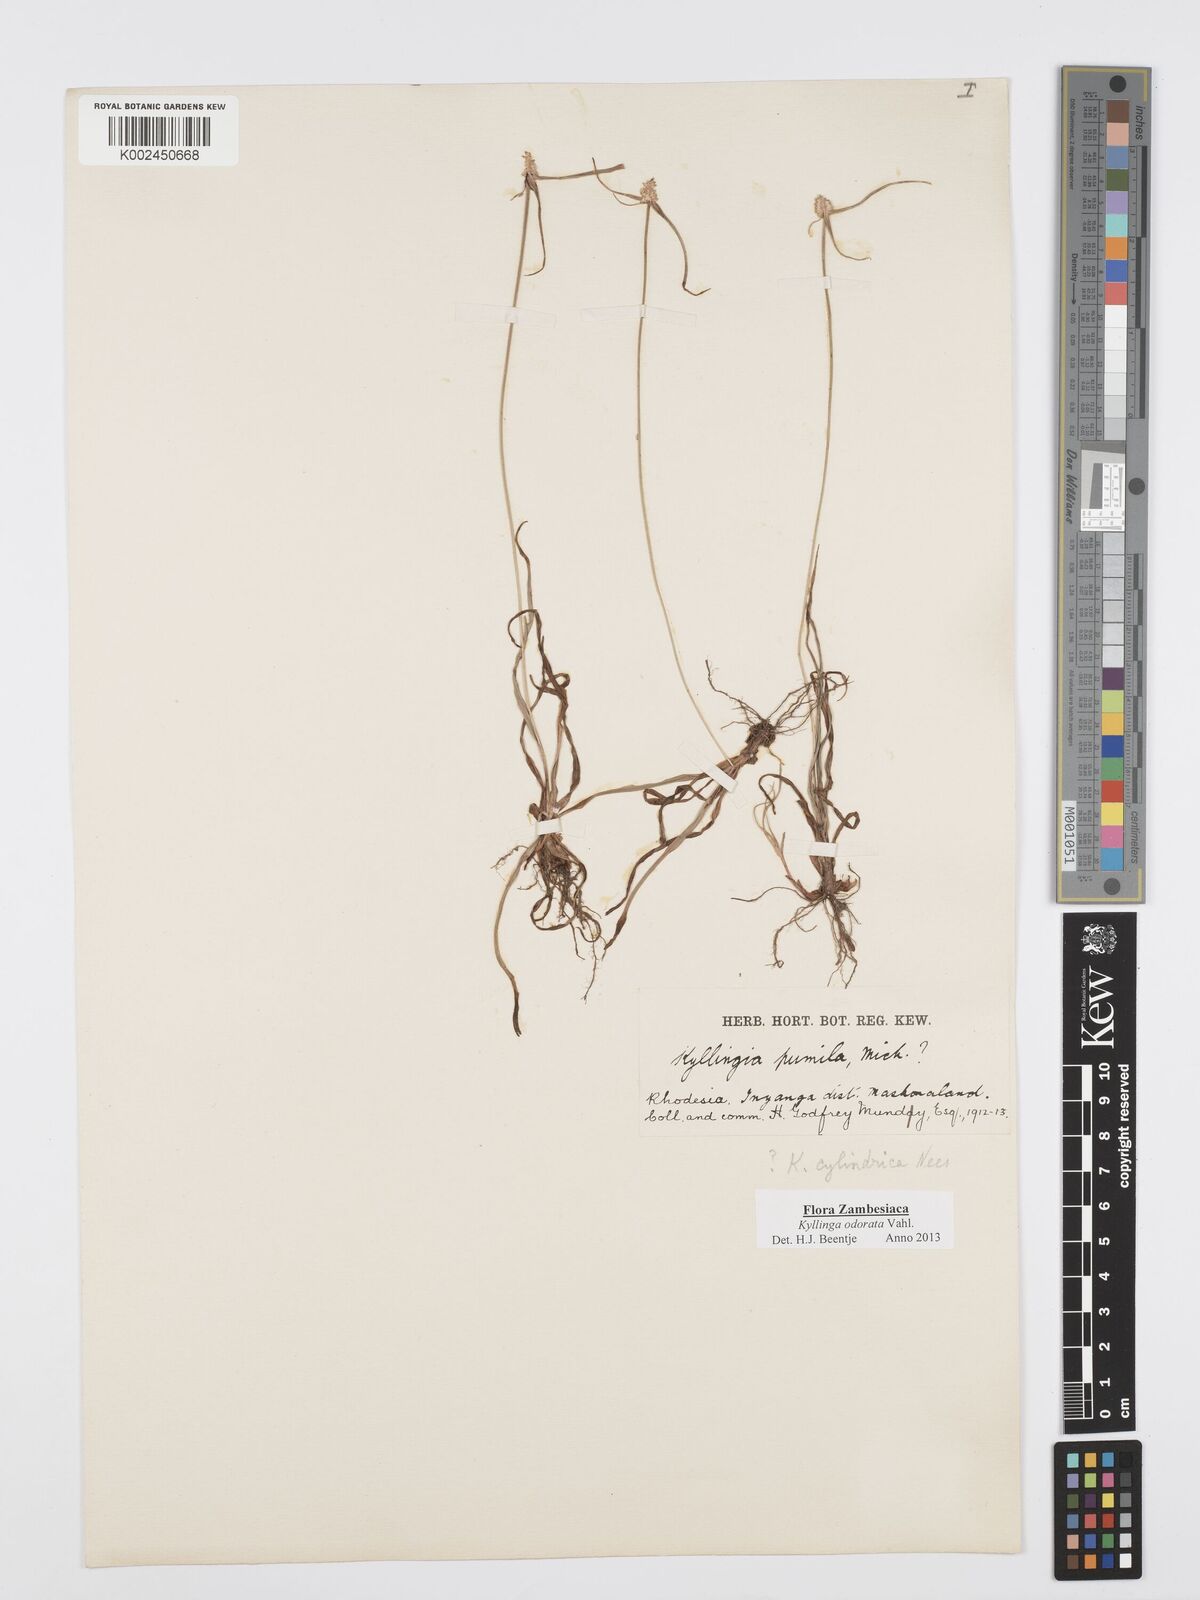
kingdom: Plantae
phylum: Tracheophyta
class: Liliopsida
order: Poales
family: Cyperaceae
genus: Cyperus
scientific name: Cyperus
